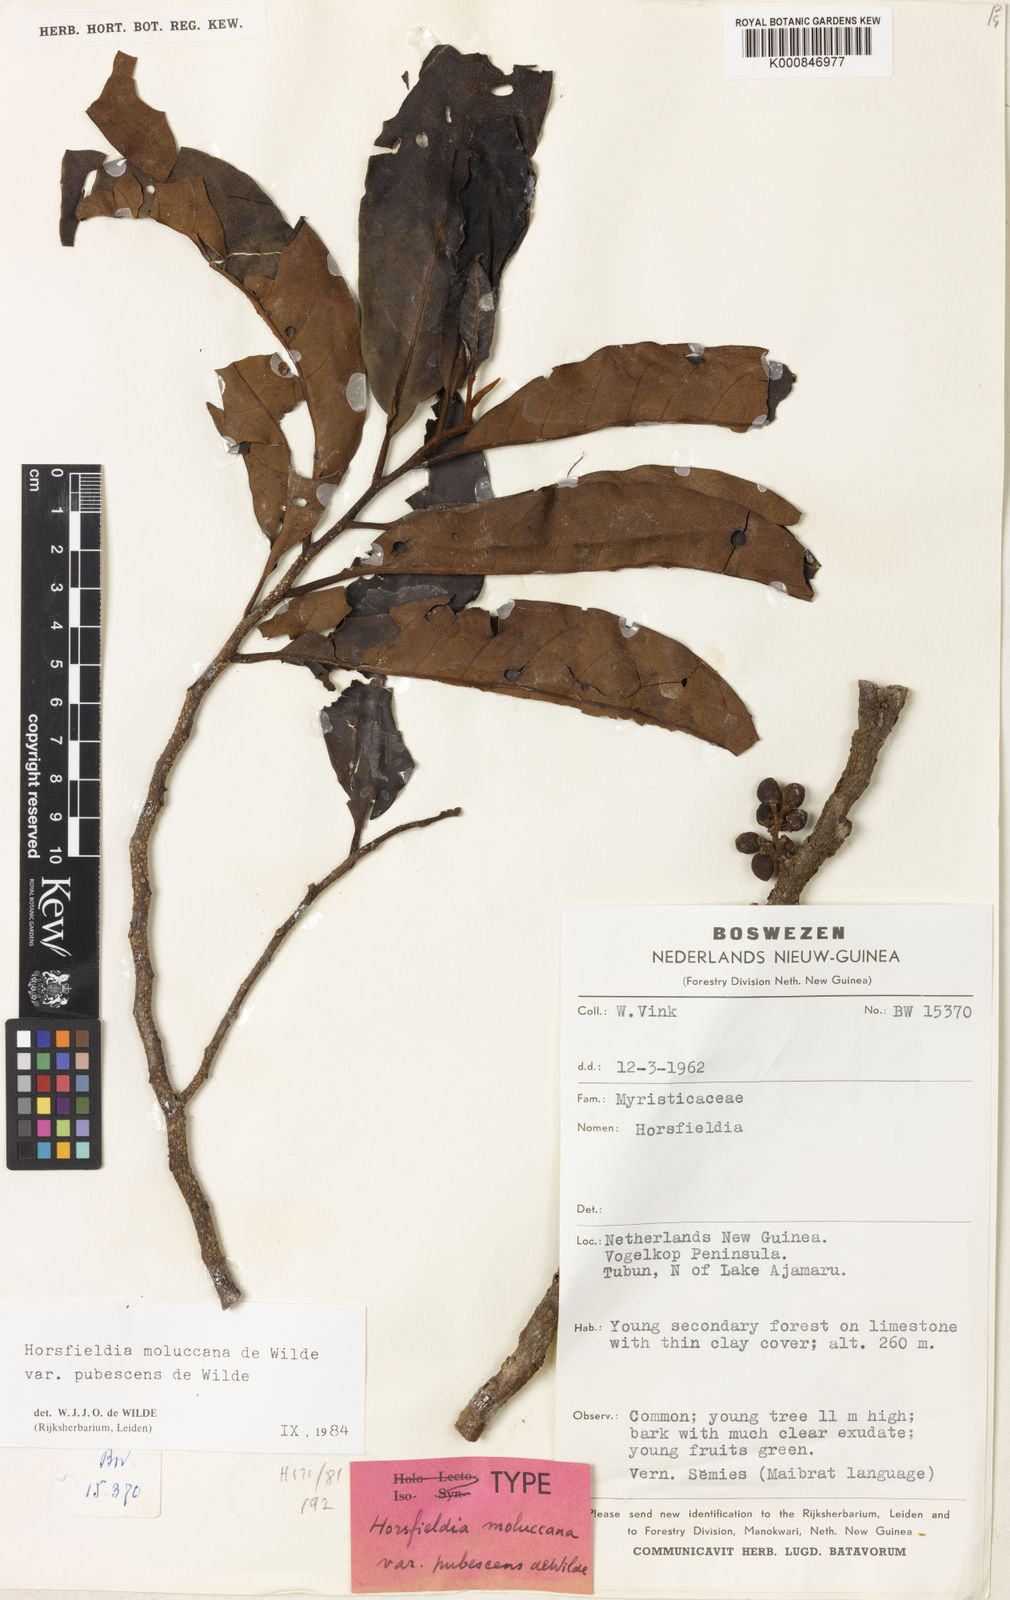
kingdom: Plantae
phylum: Tracheophyta
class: Magnoliopsida
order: Magnoliales
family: Myristicaceae
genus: Horsfieldia
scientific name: Horsfieldia moluccana
